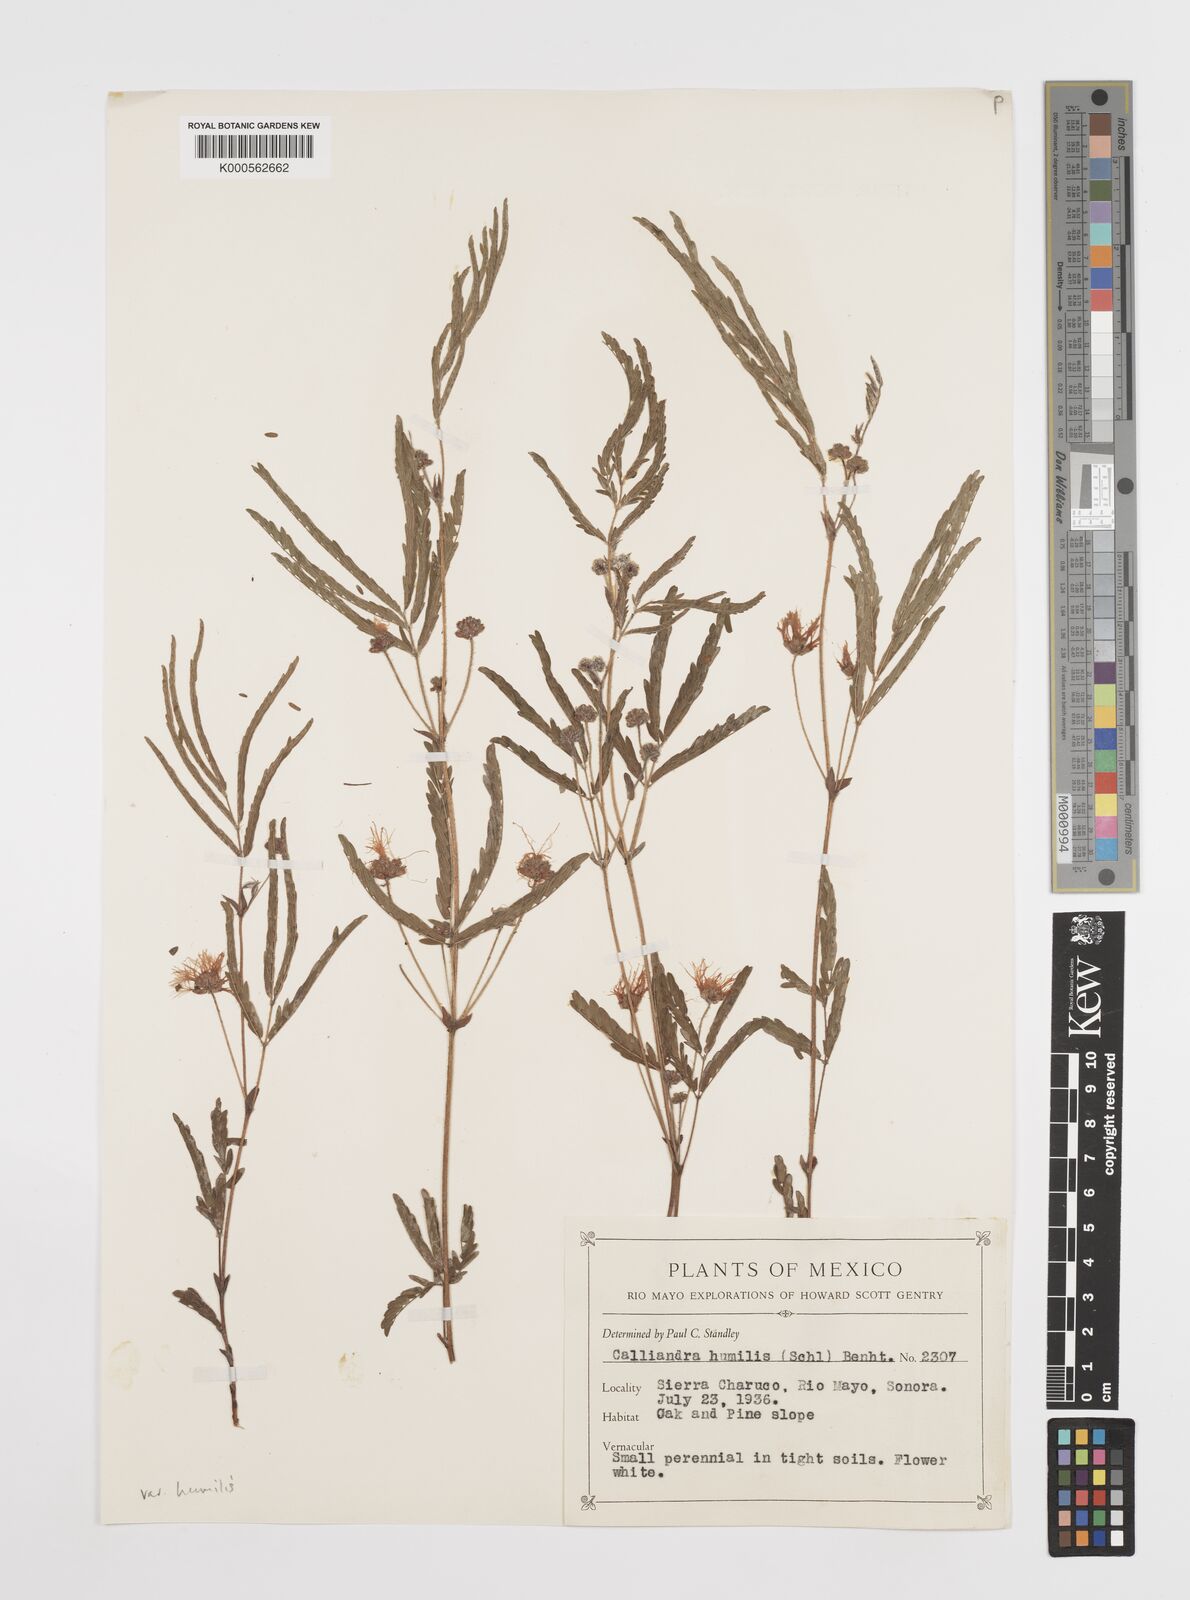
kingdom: Plantae
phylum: Tracheophyta
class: Magnoliopsida
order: Fabales
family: Fabaceae
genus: Calliandra
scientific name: Calliandra humilis
